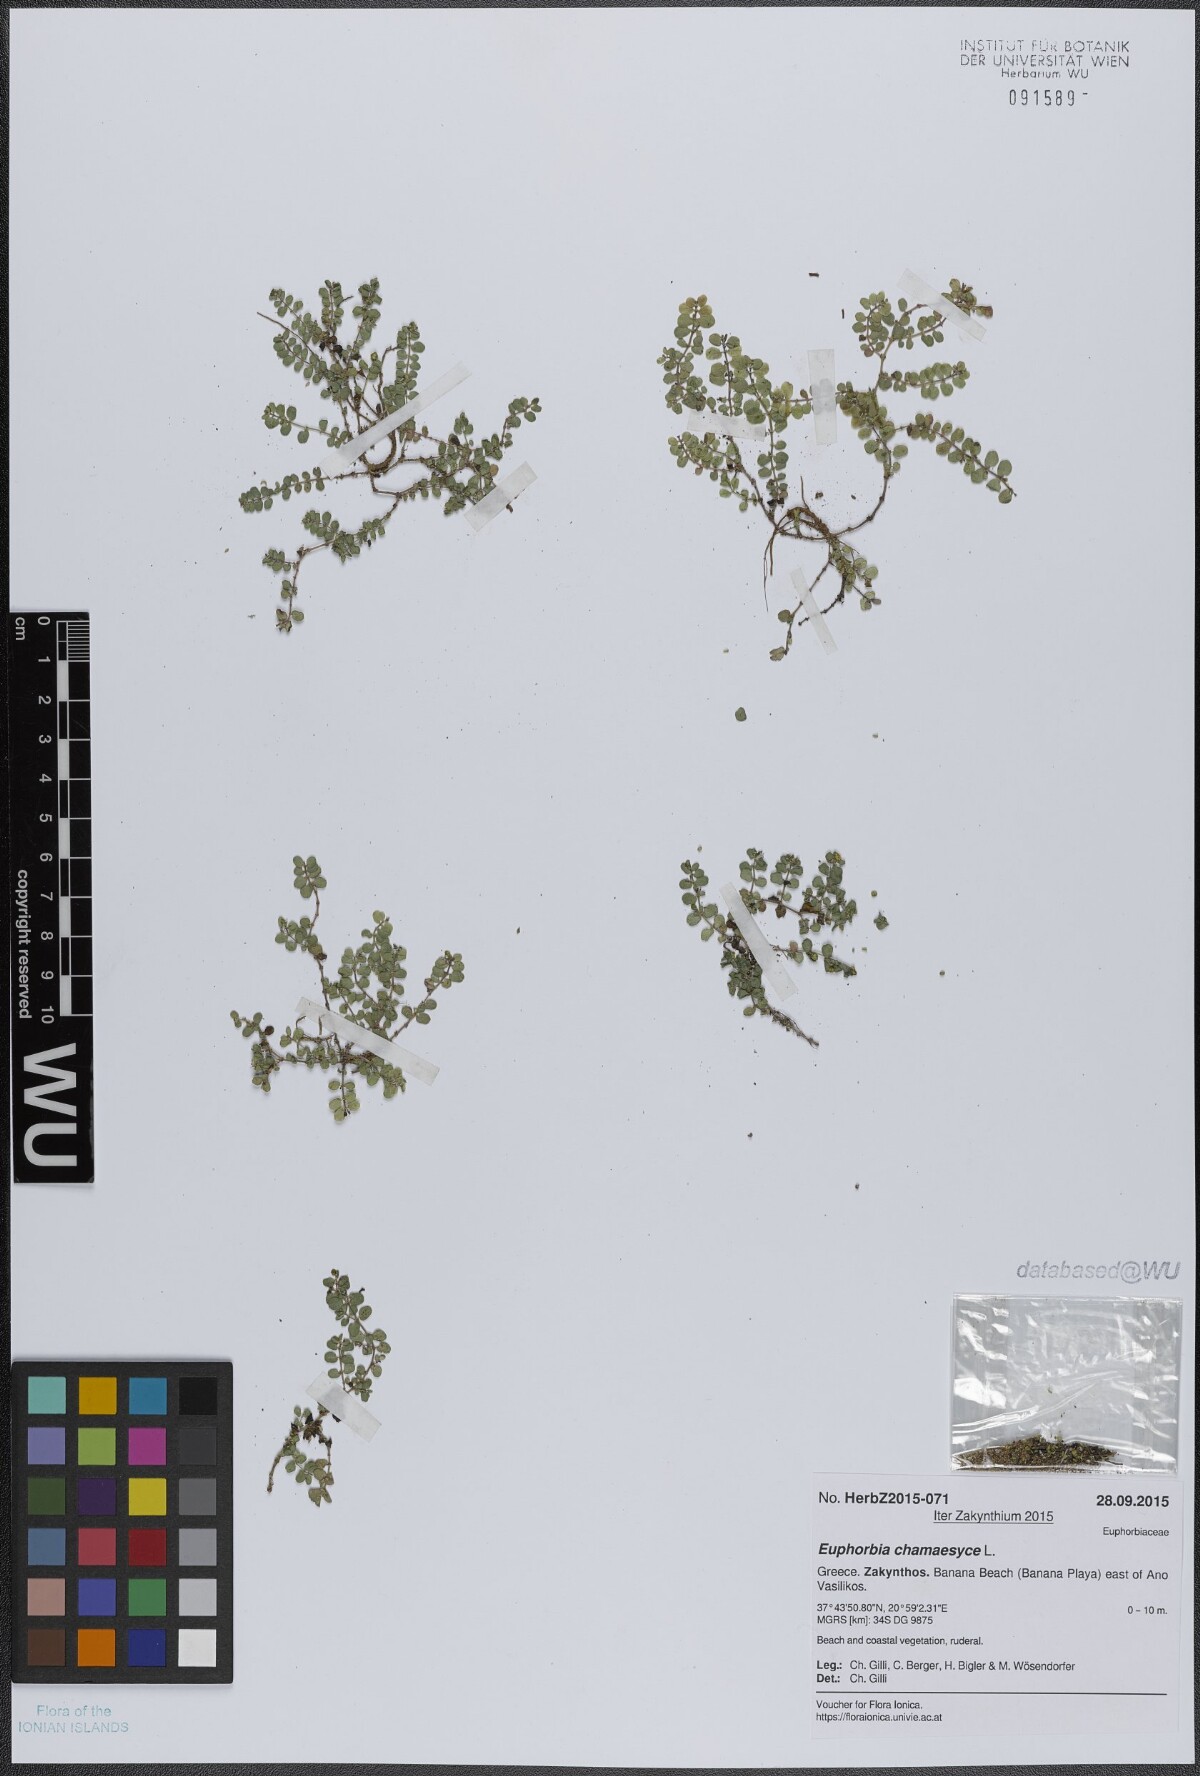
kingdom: Plantae
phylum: Tracheophyta
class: Magnoliopsida
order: Malpighiales
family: Euphorbiaceae
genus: Euphorbia
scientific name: Euphorbia serpens
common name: Matted sandmat
